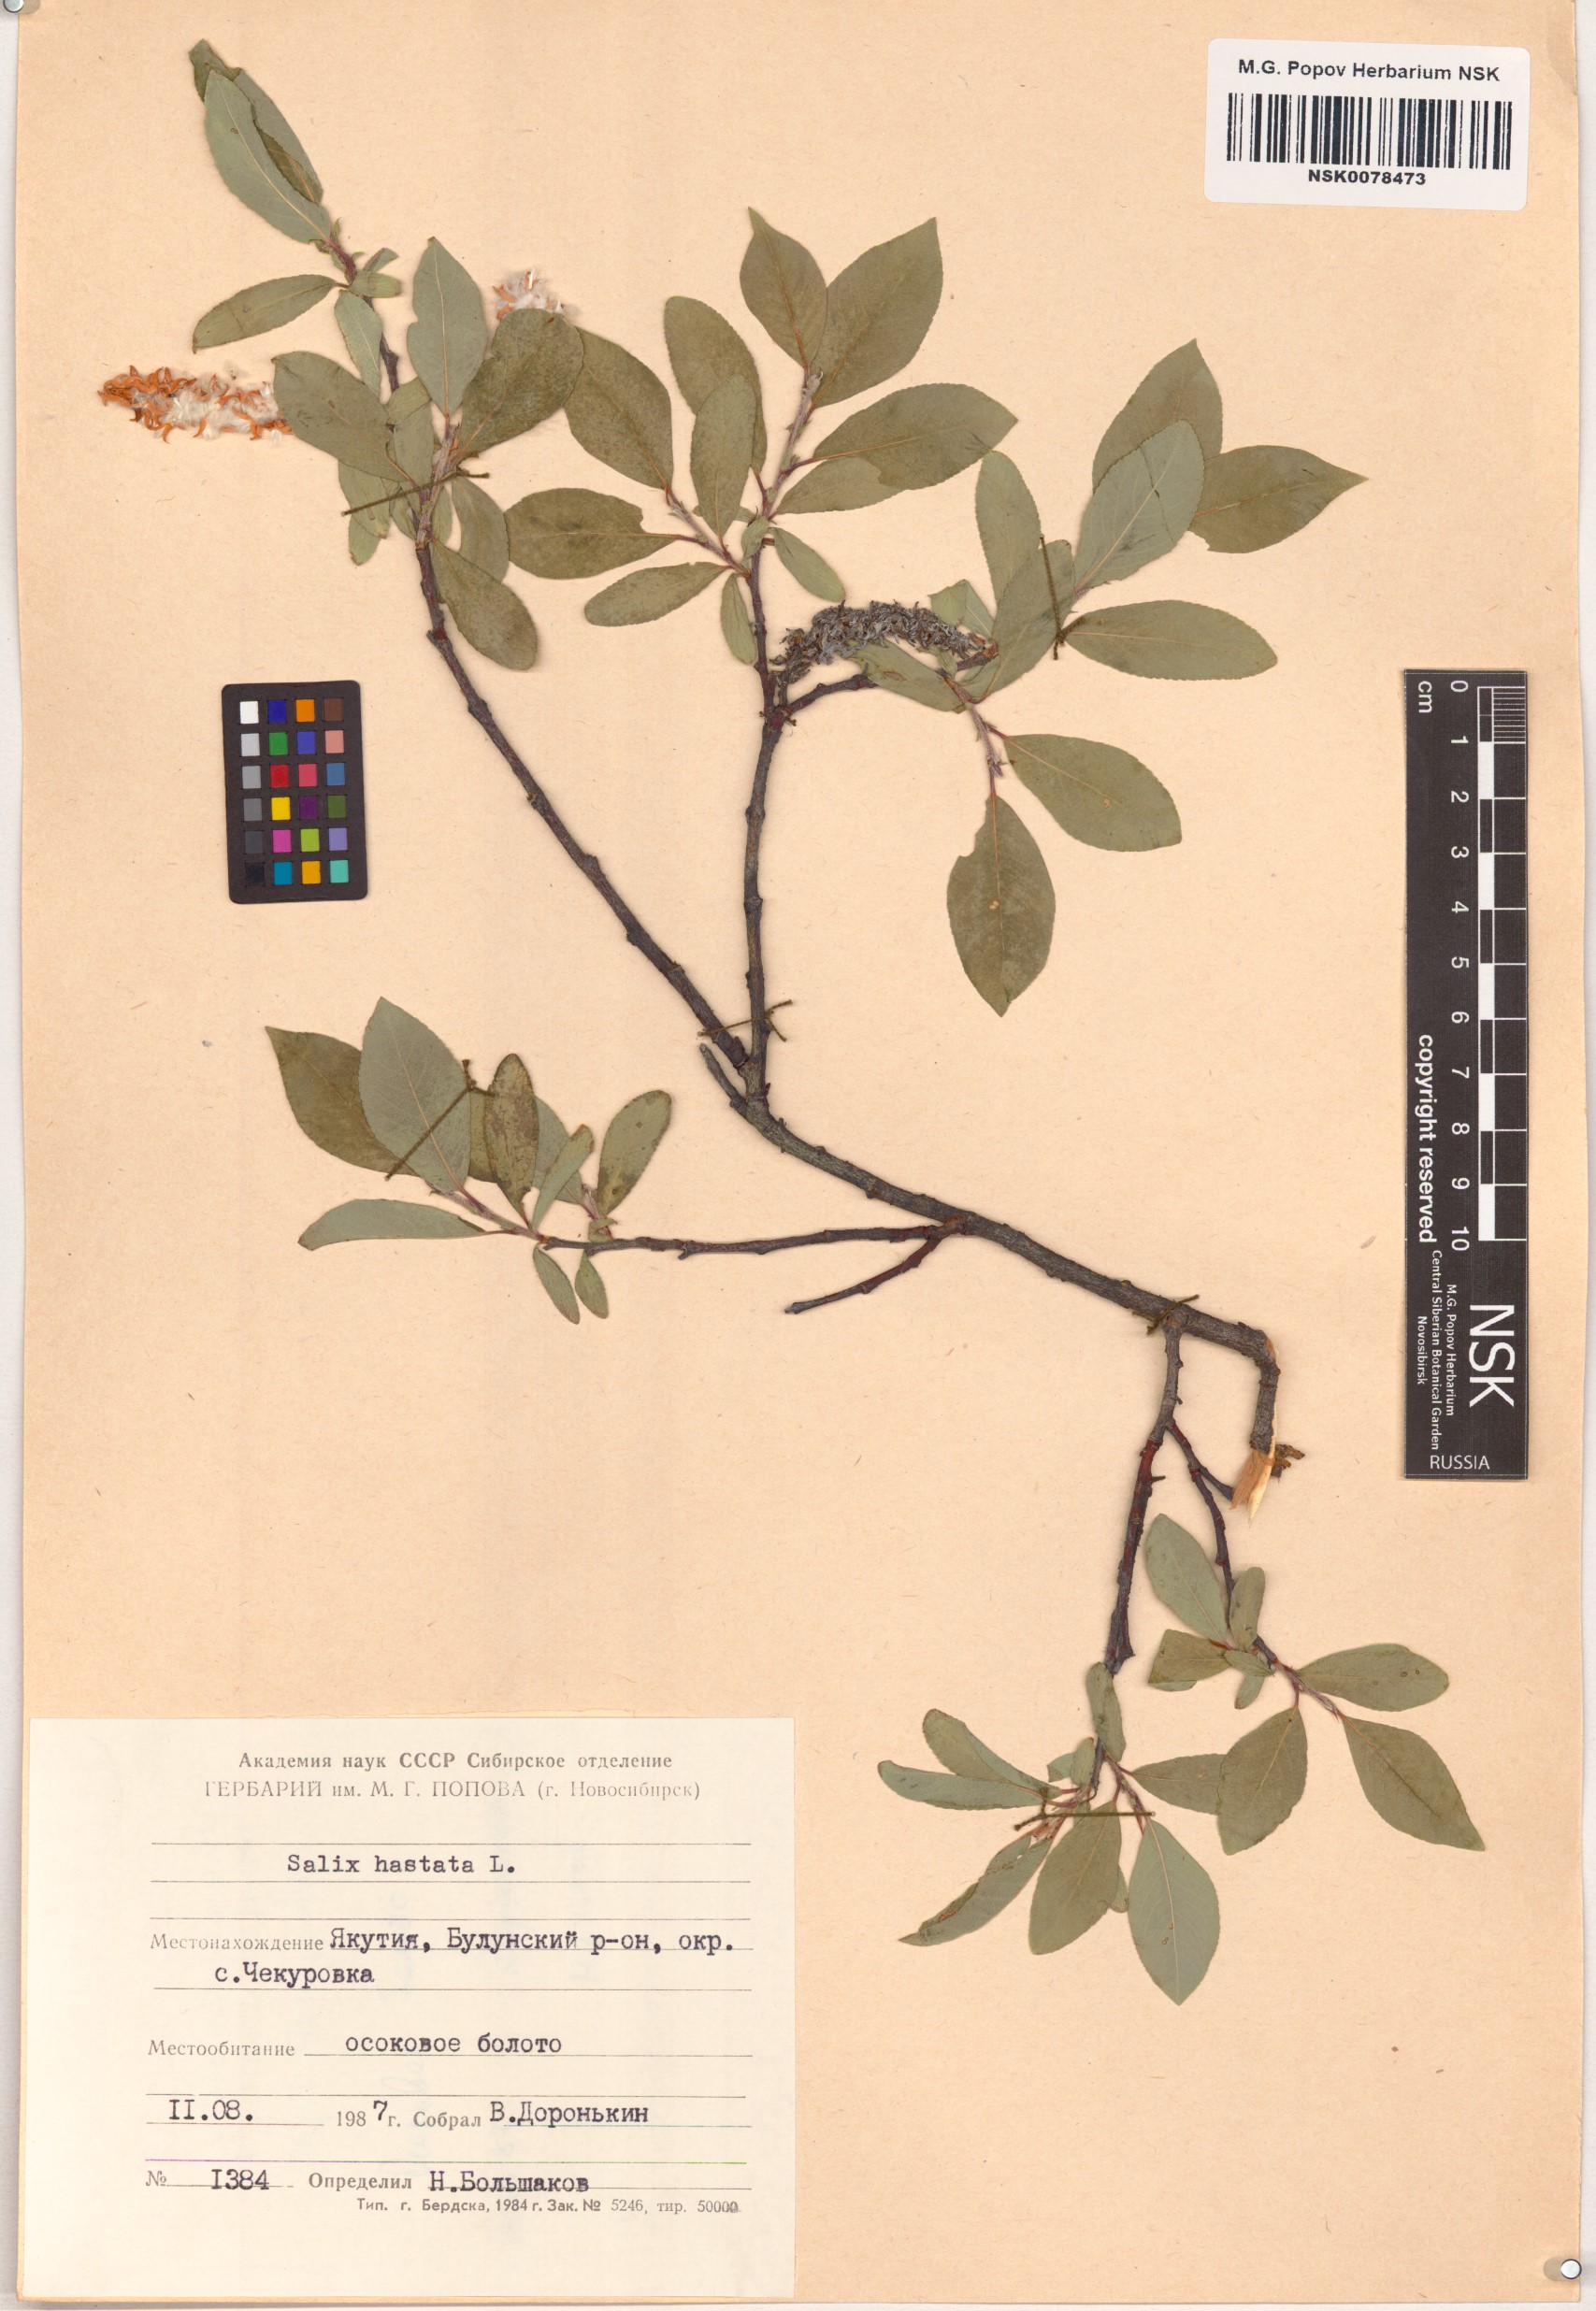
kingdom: Plantae
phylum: Tracheophyta
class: Magnoliopsida
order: Malpighiales
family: Salicaceae
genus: Salix
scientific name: Salix hastata
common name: Halberd willow
